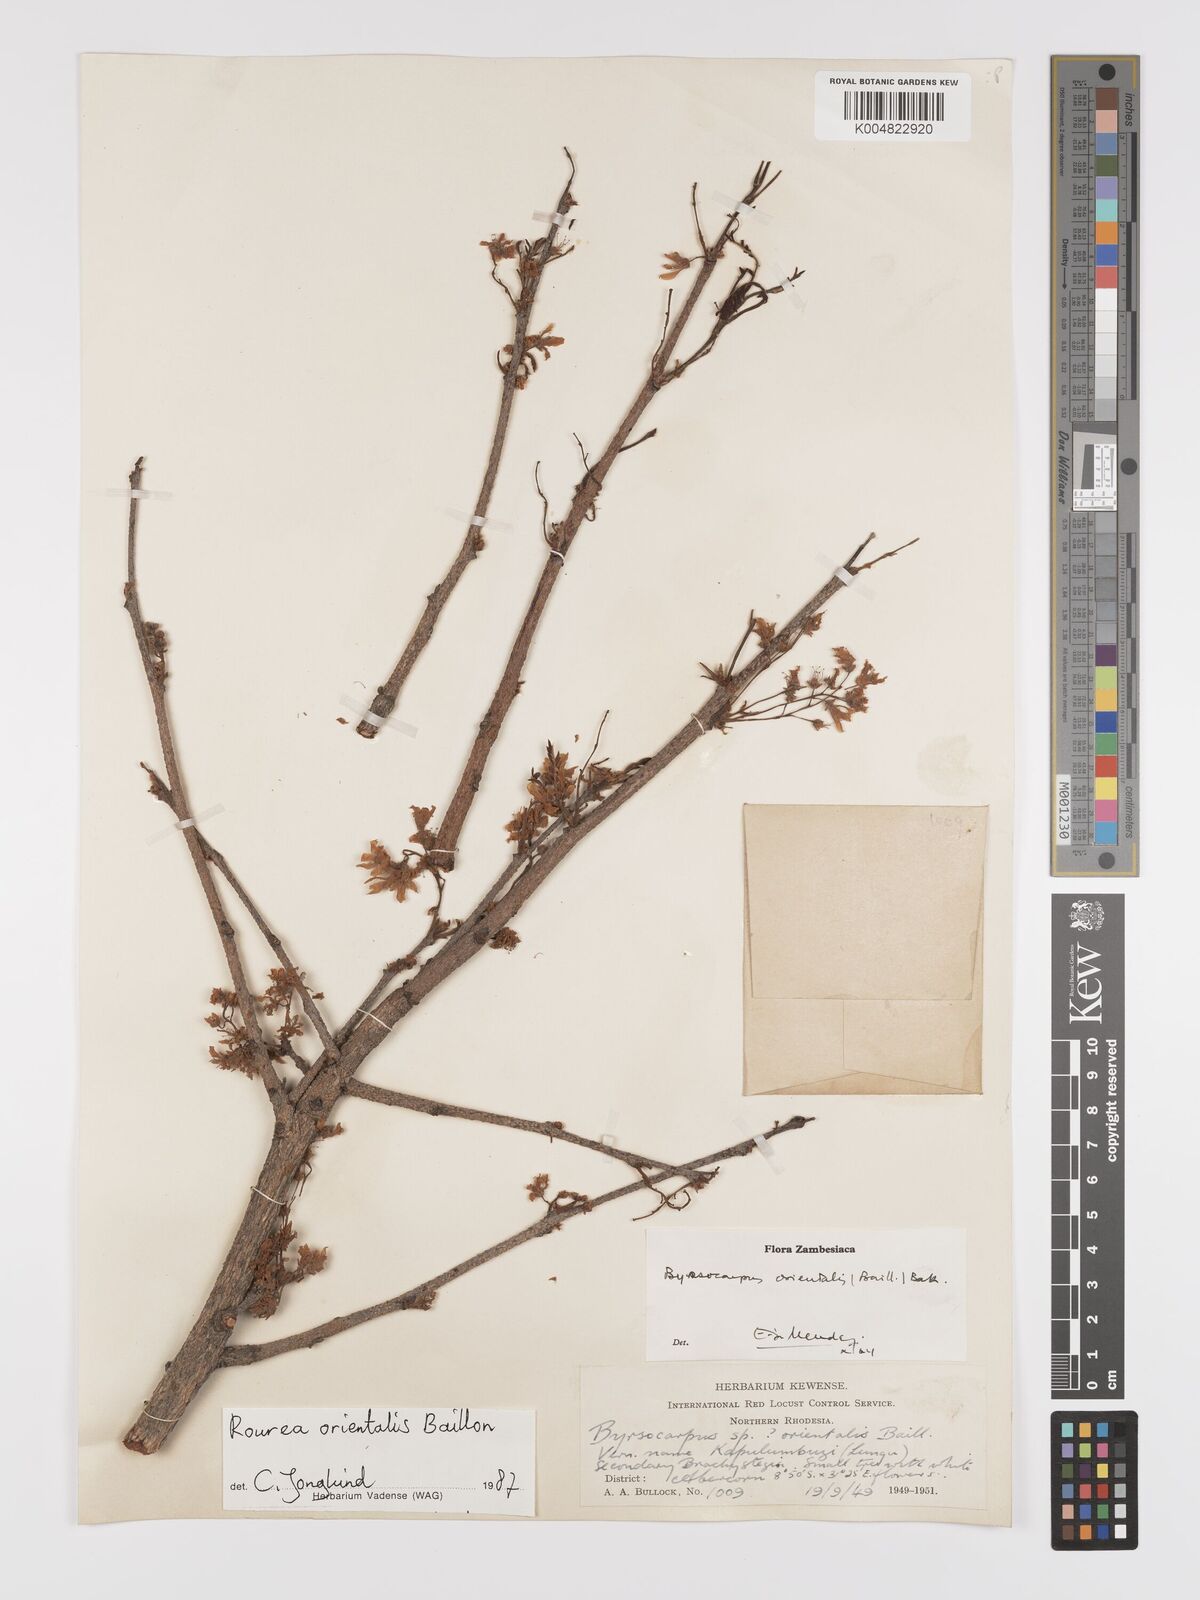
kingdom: Plantae
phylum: Tracheophyta
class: Magnoliopsida
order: Oxalidales
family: Connaraceae
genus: Rourea
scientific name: Rourea orientalis
